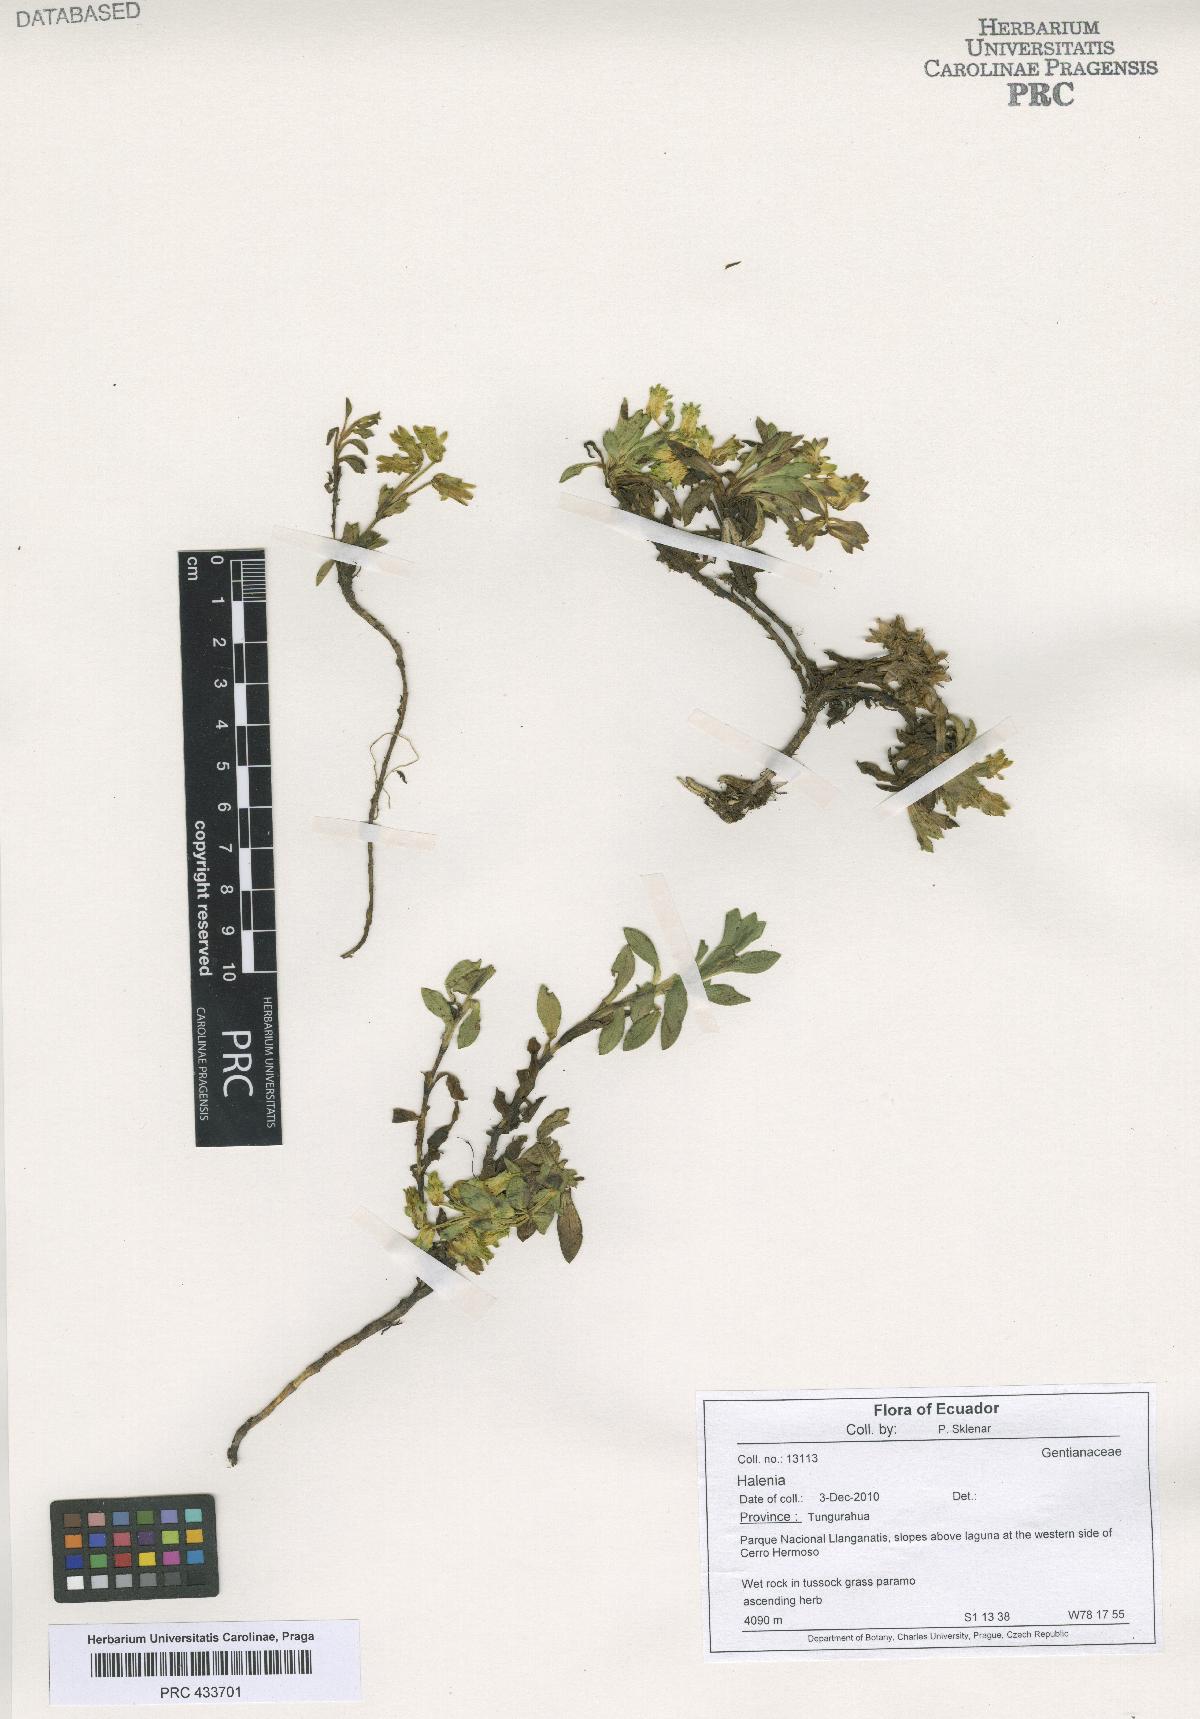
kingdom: Plantae
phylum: Tracheophyta
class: Magnoliopsida
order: Gentianales
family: Gentianaceae
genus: Halenia
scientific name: Halenia
